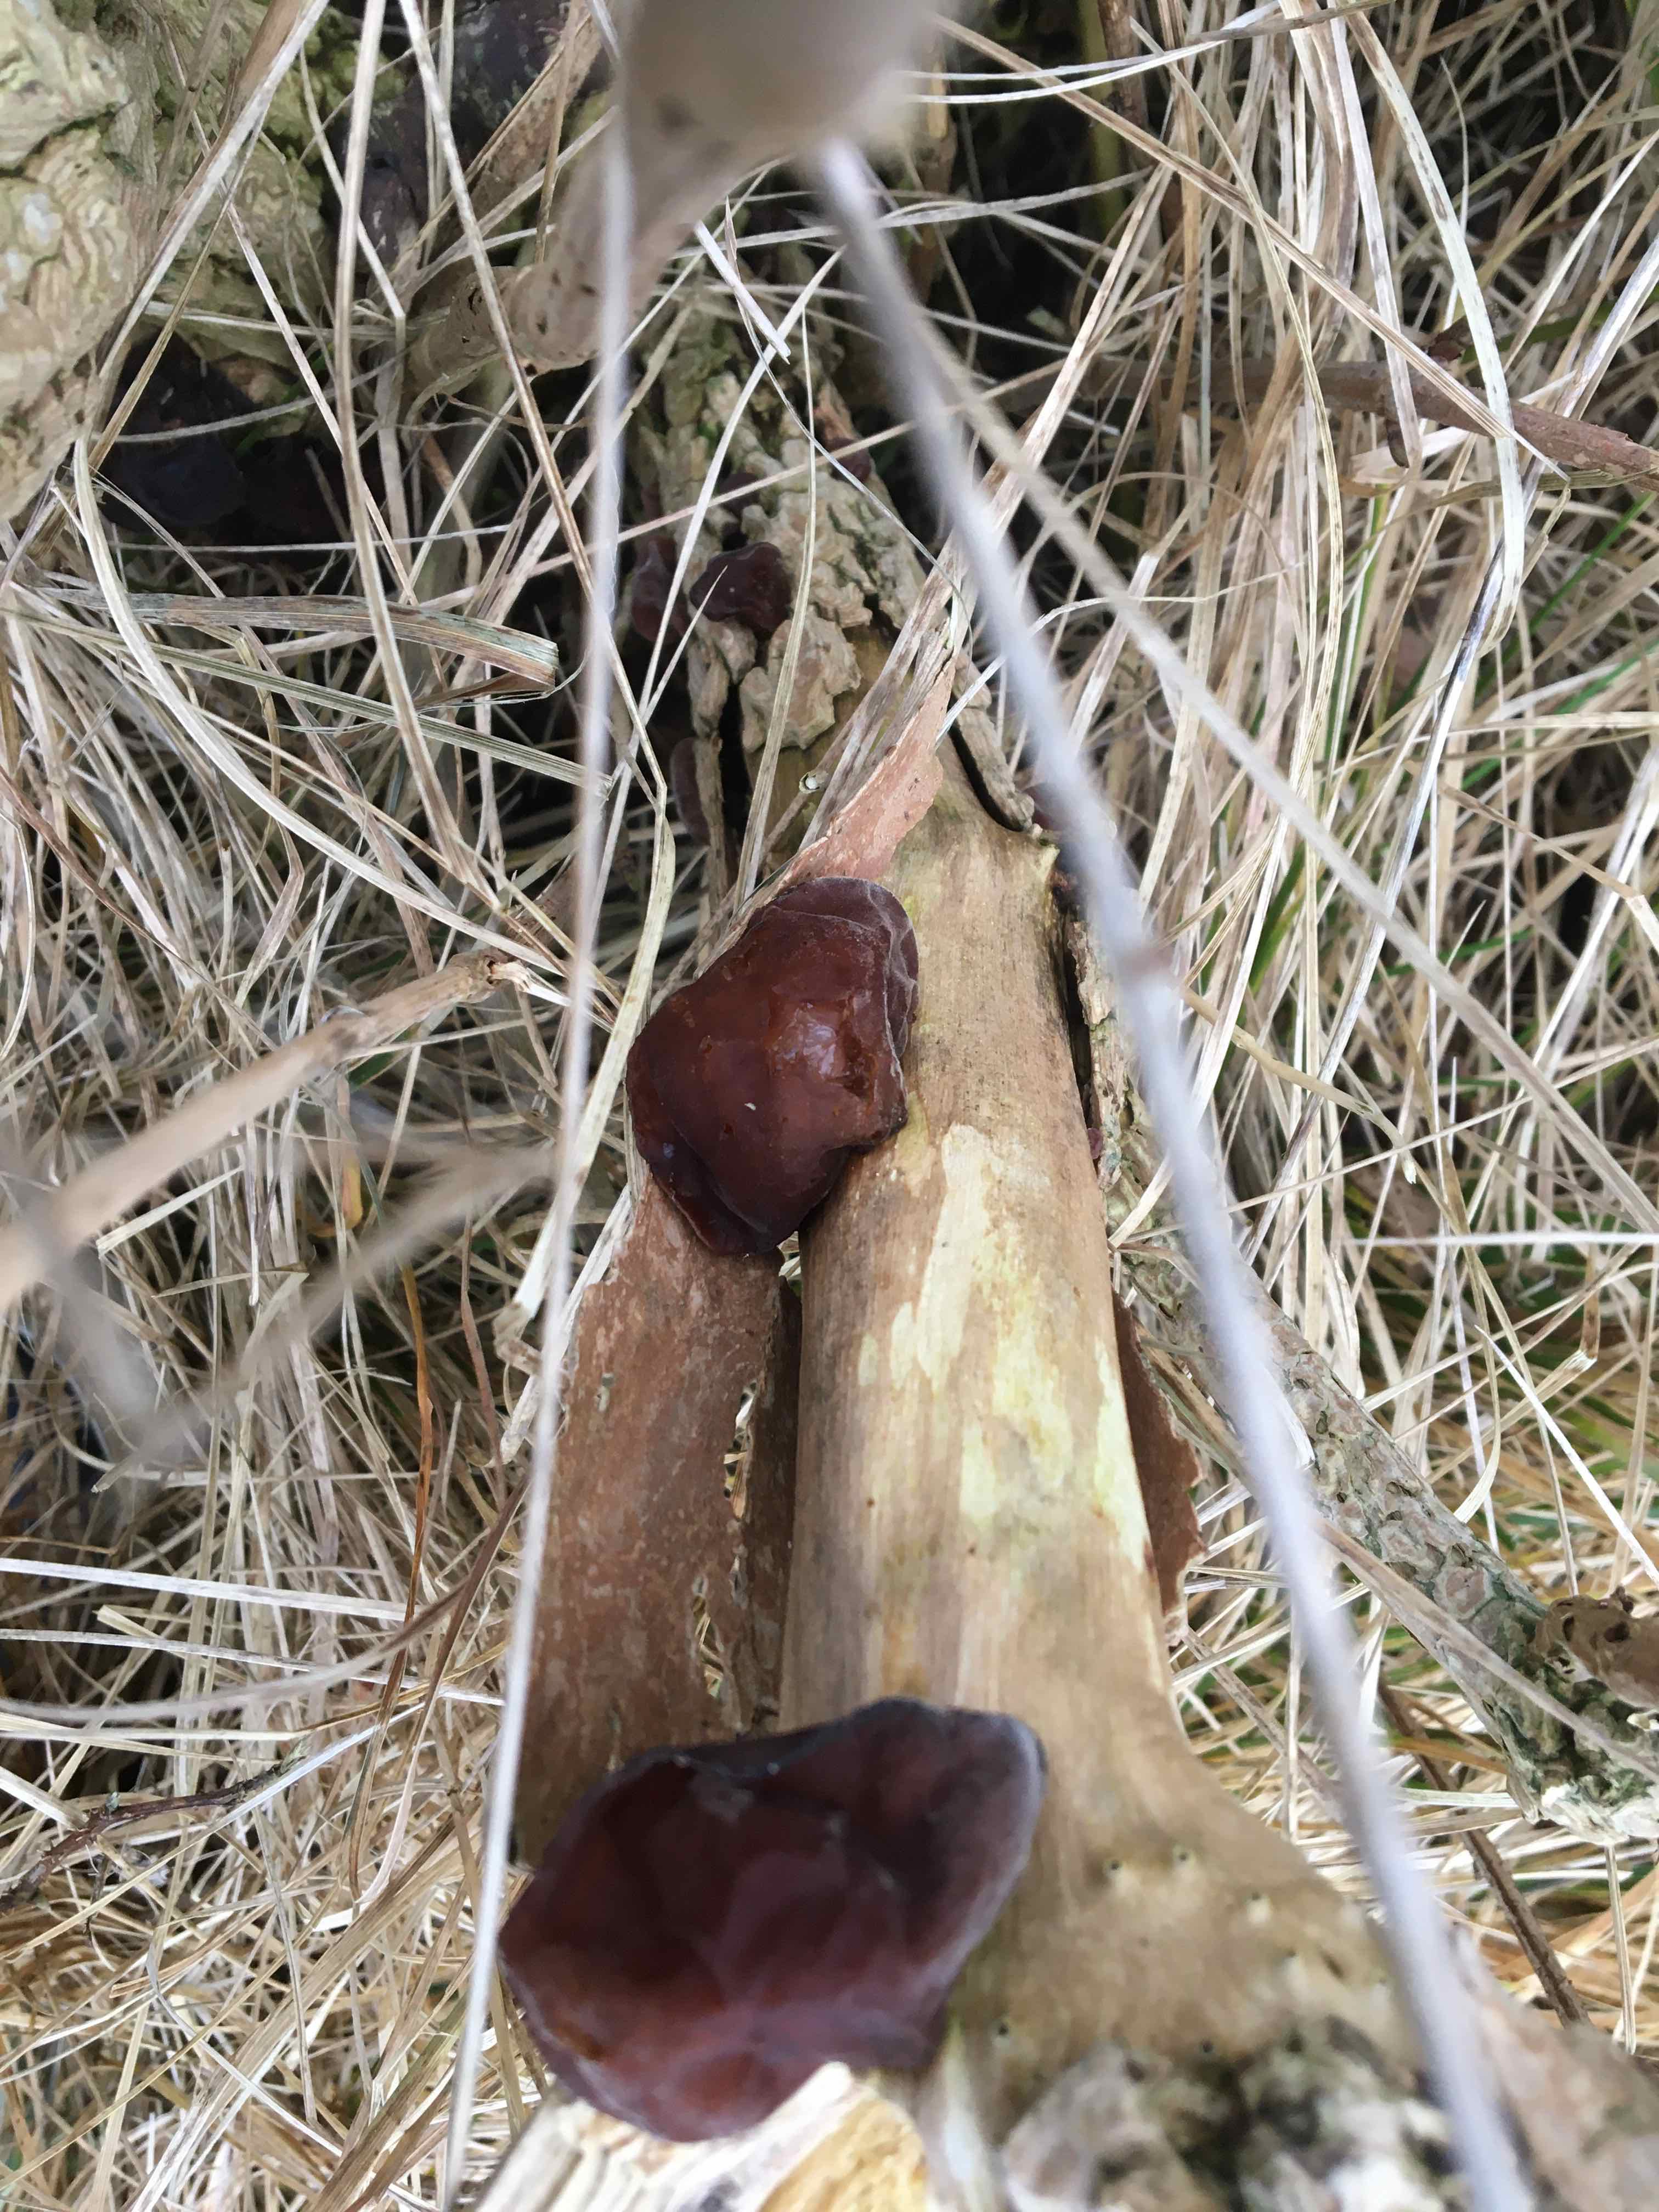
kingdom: Fungi
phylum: Basidiomycota
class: Agaricomycetes
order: Auriculariales
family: Auriculariaceae
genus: Auricularia
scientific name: Auricularia auricula-judae
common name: almindelig judasøre
